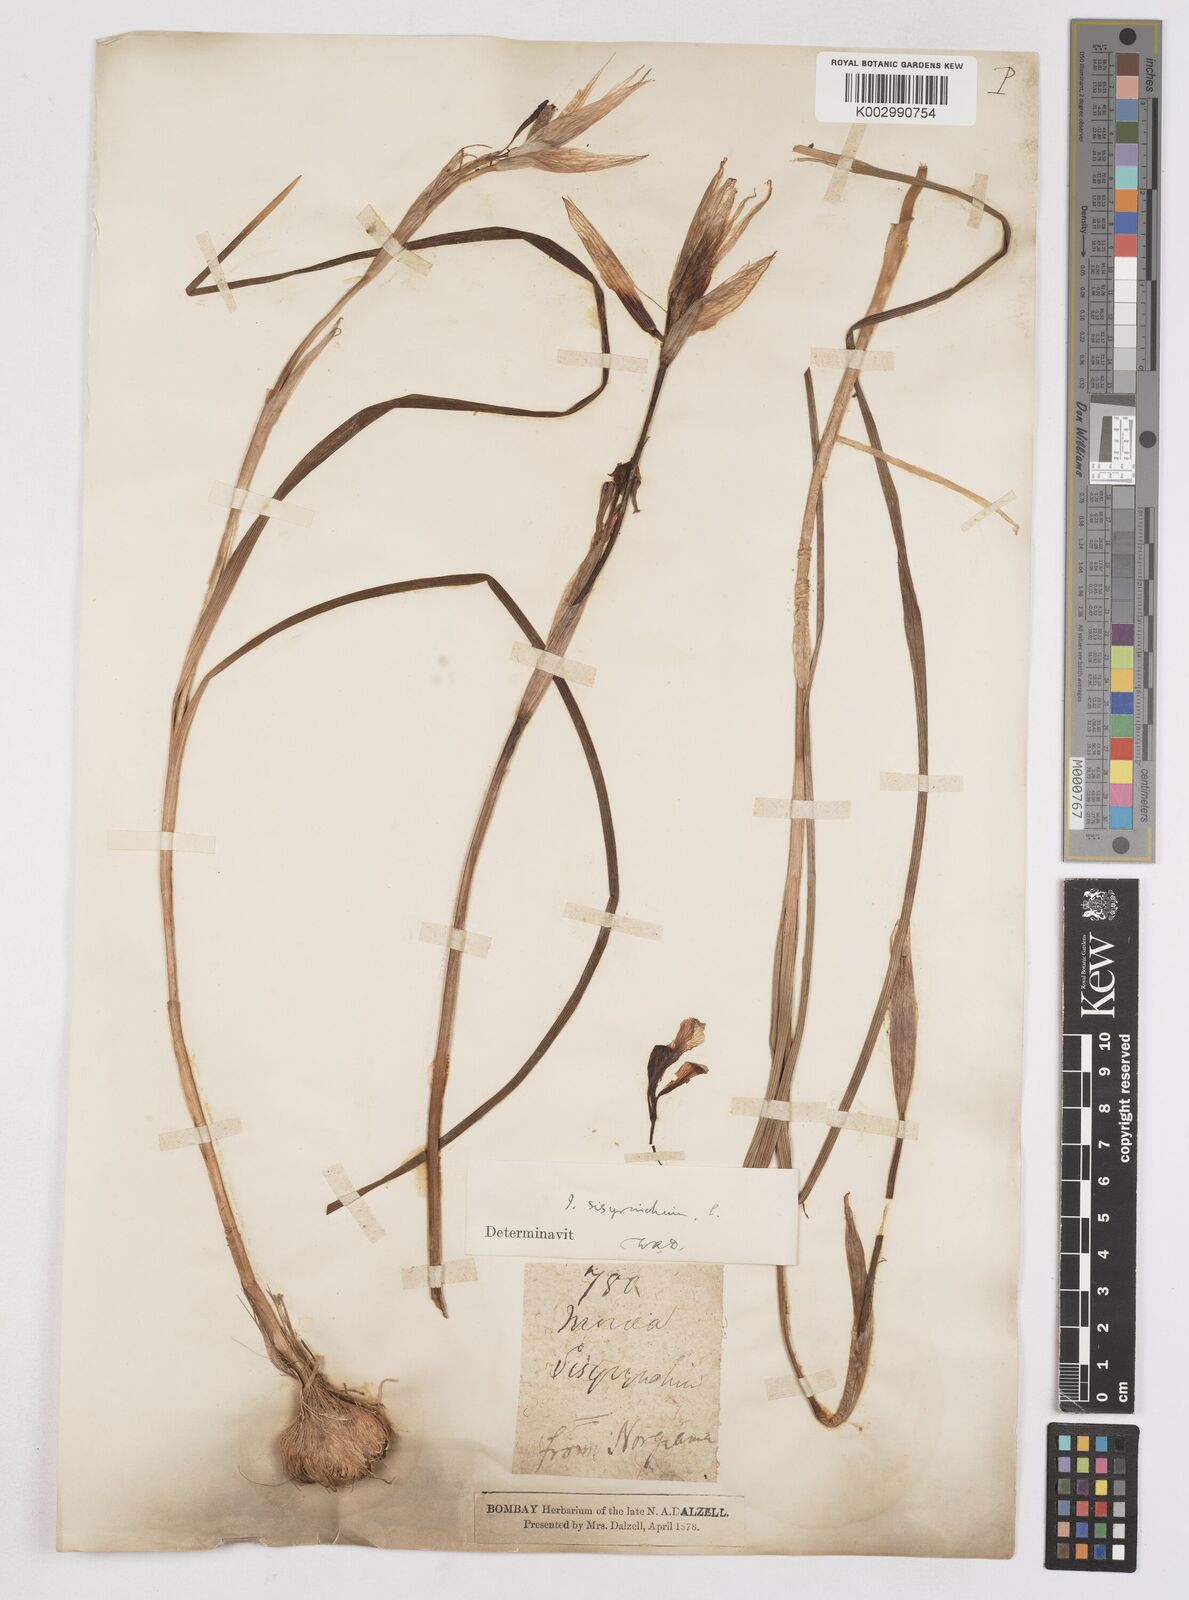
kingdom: Plantae
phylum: Tracheophyta
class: Liliopsida
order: Asparagales
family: Iridaceae
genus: Moraea
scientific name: Moraea sisyrinchium
